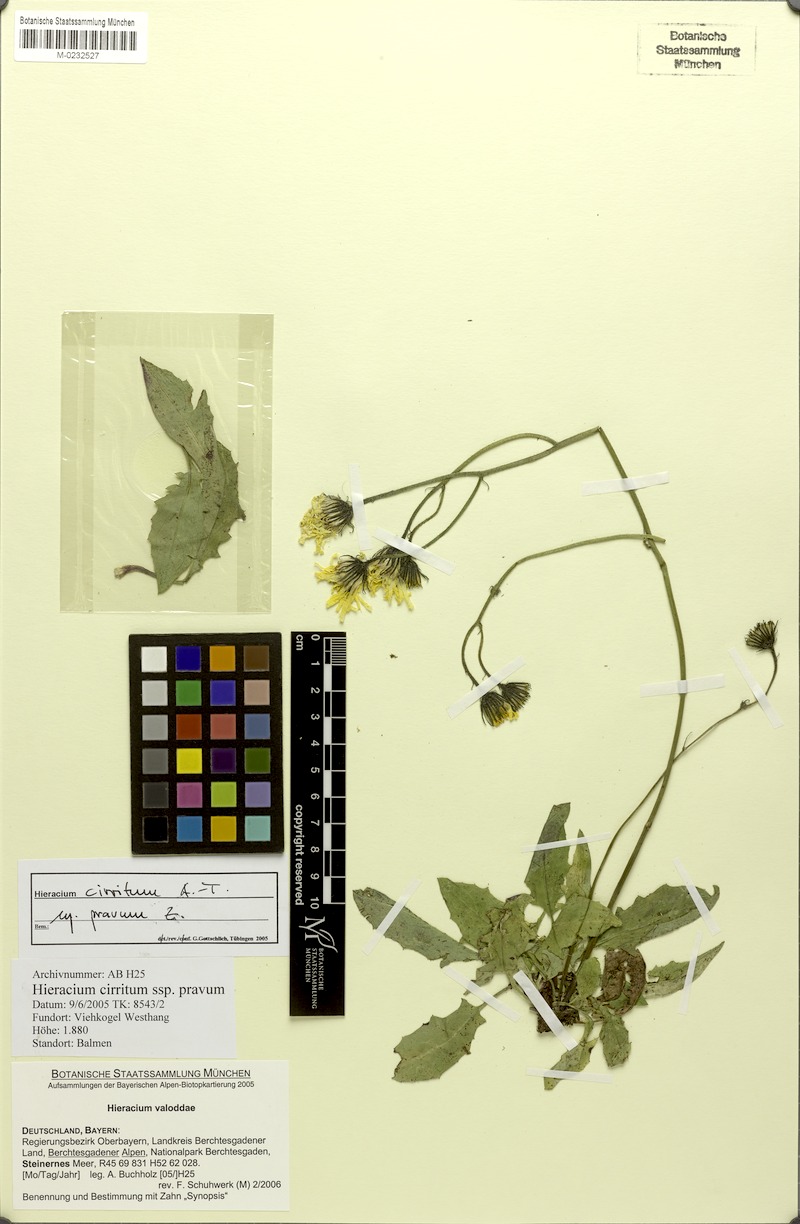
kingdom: Plantae
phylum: Tracheophyta
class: Magnoliopsida
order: Asterales
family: Asteraceae
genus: Hieracium
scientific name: Hieracium valoddae
